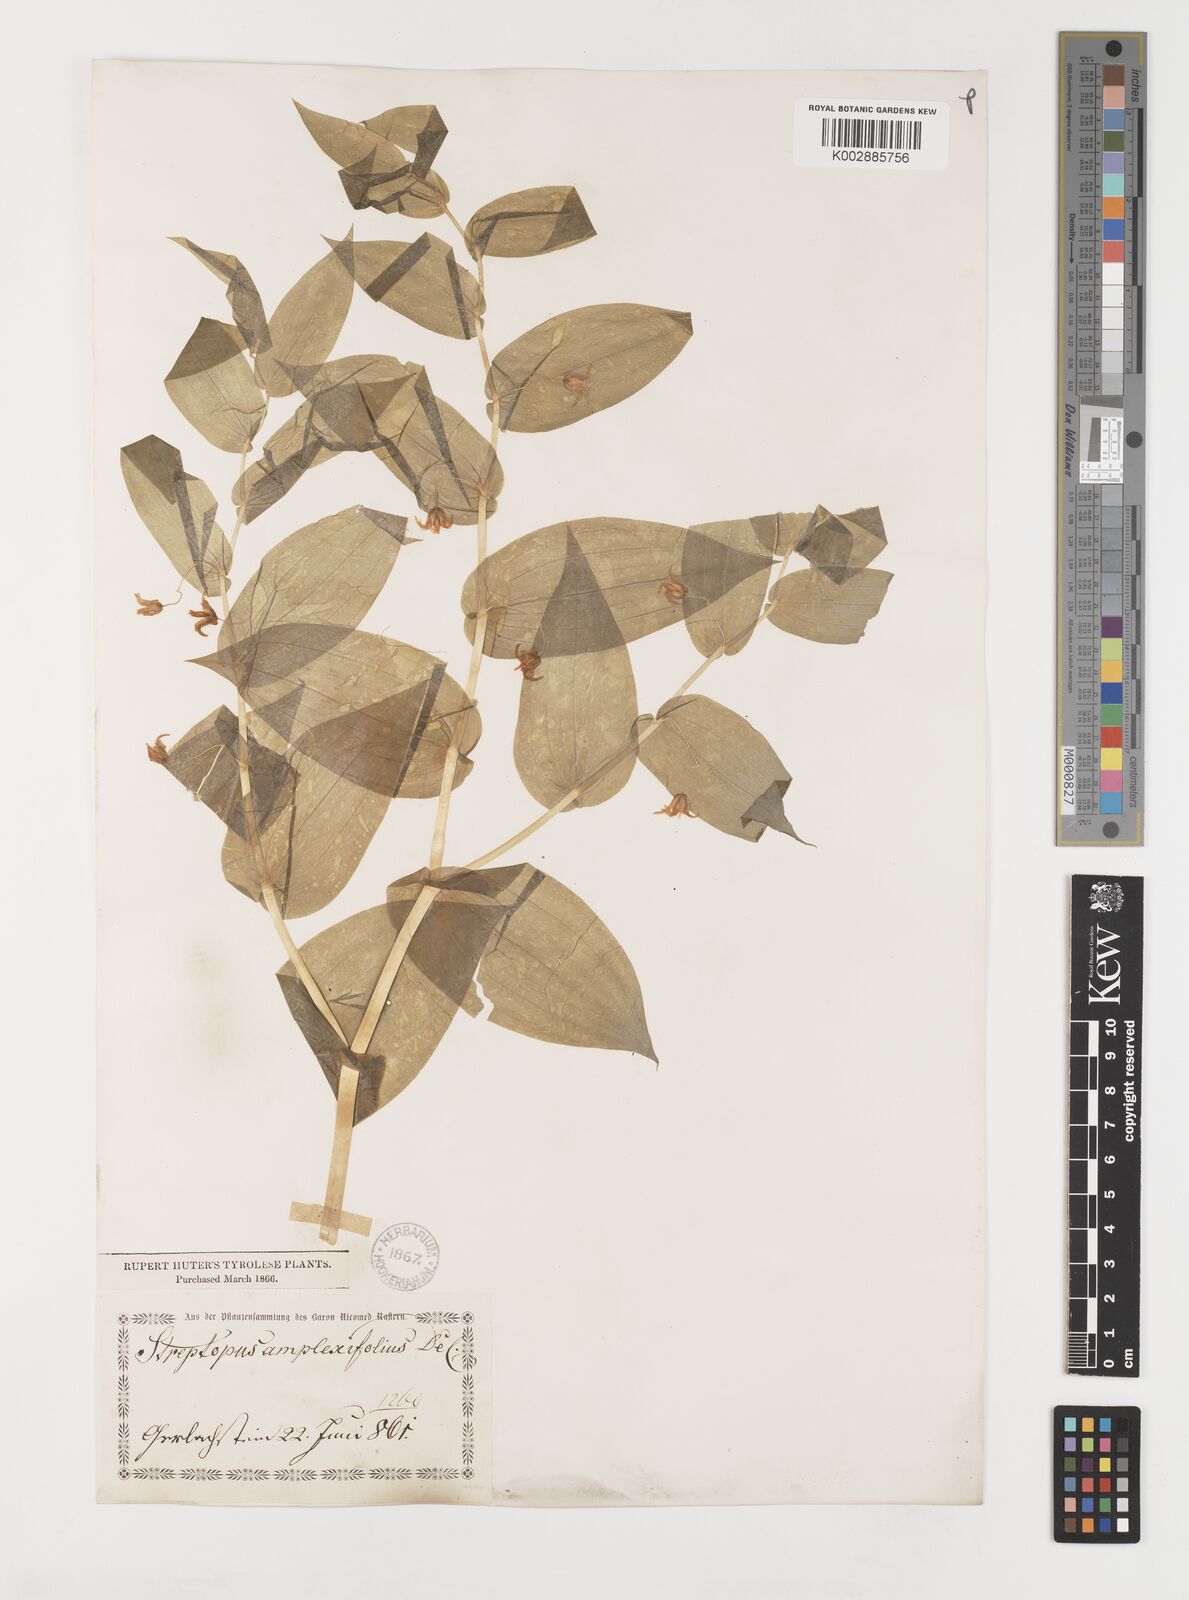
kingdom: Plantae
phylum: Tracheophyta
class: Liliopsida
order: Liliales
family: Liliaceae
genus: Streptopus
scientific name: Streptopus amplexifolius
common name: Clasp twisted stalk
